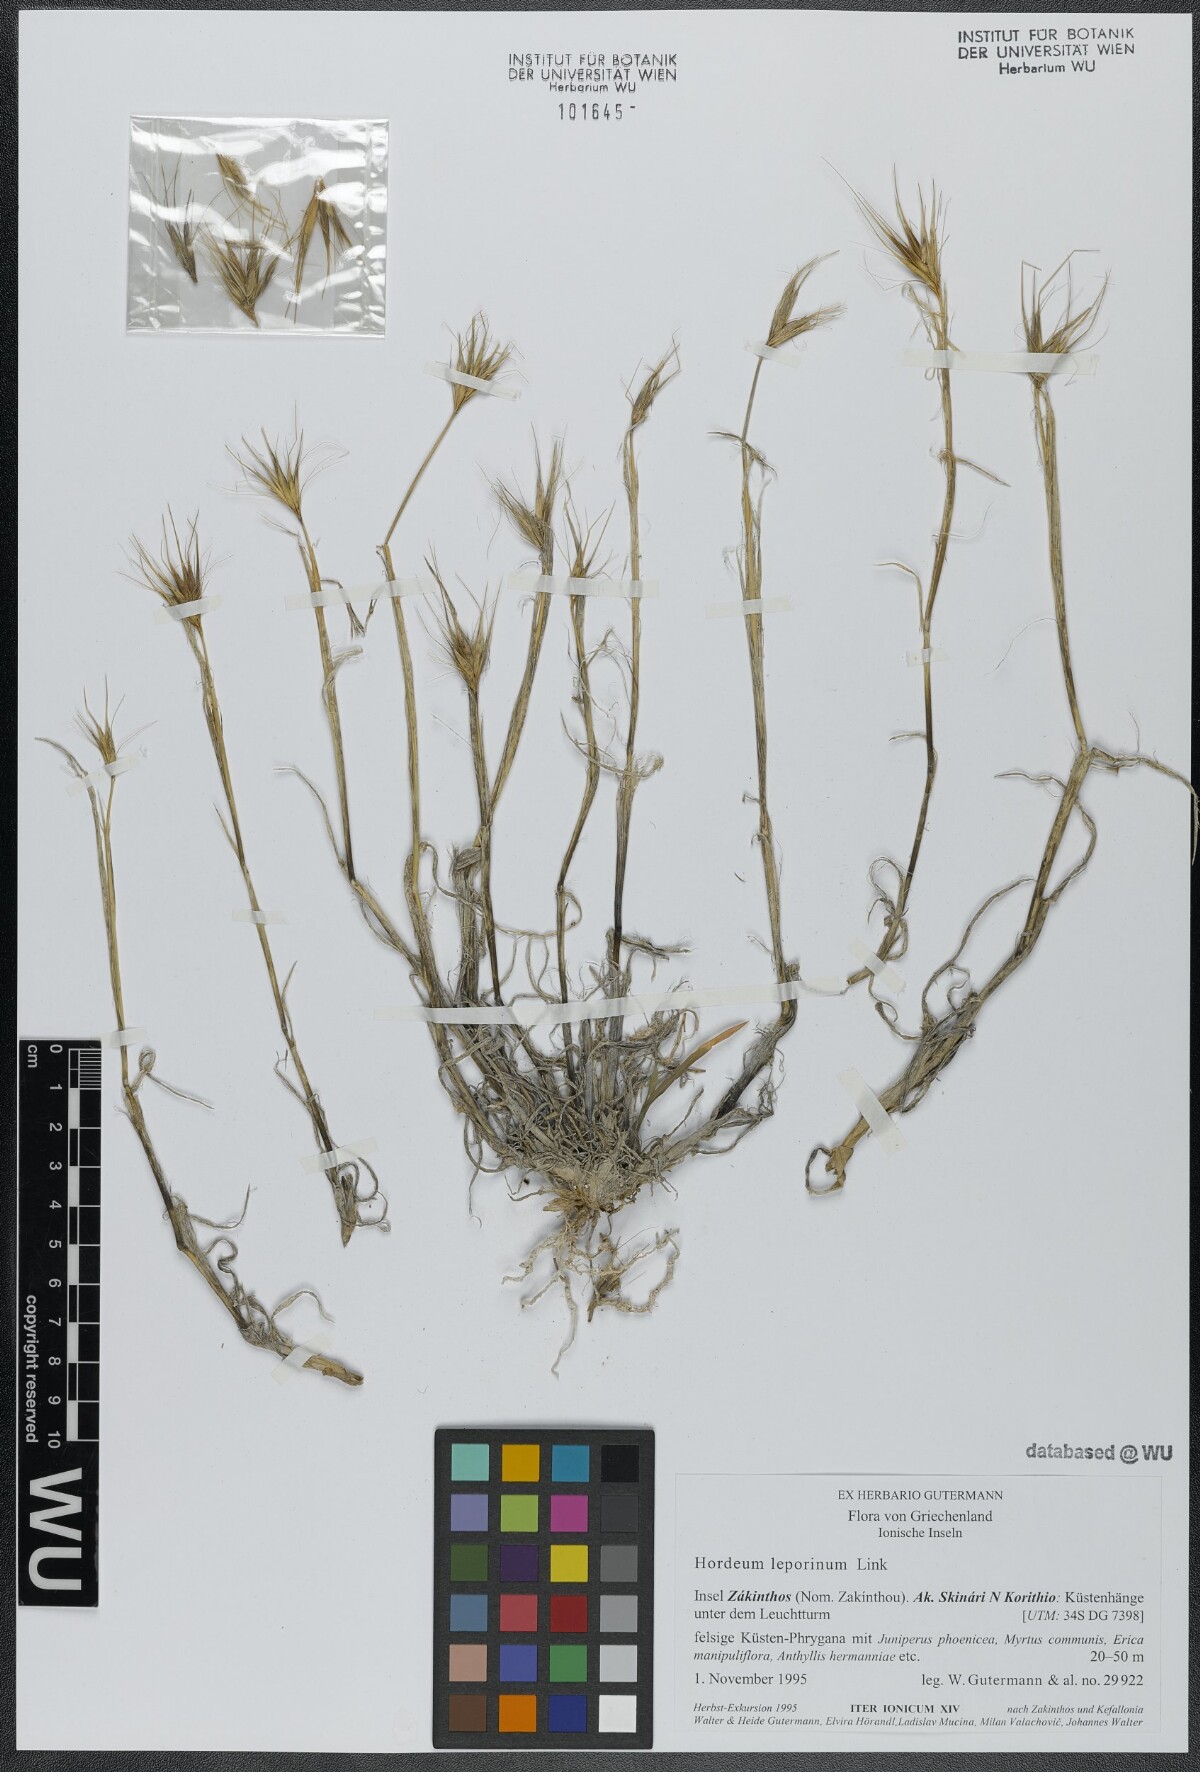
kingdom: Plantae
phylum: Tracheophyta
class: Liliopsida
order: Poales
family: Poaceae
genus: Hordeum
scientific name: Hordeum murinum
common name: Wall barley
